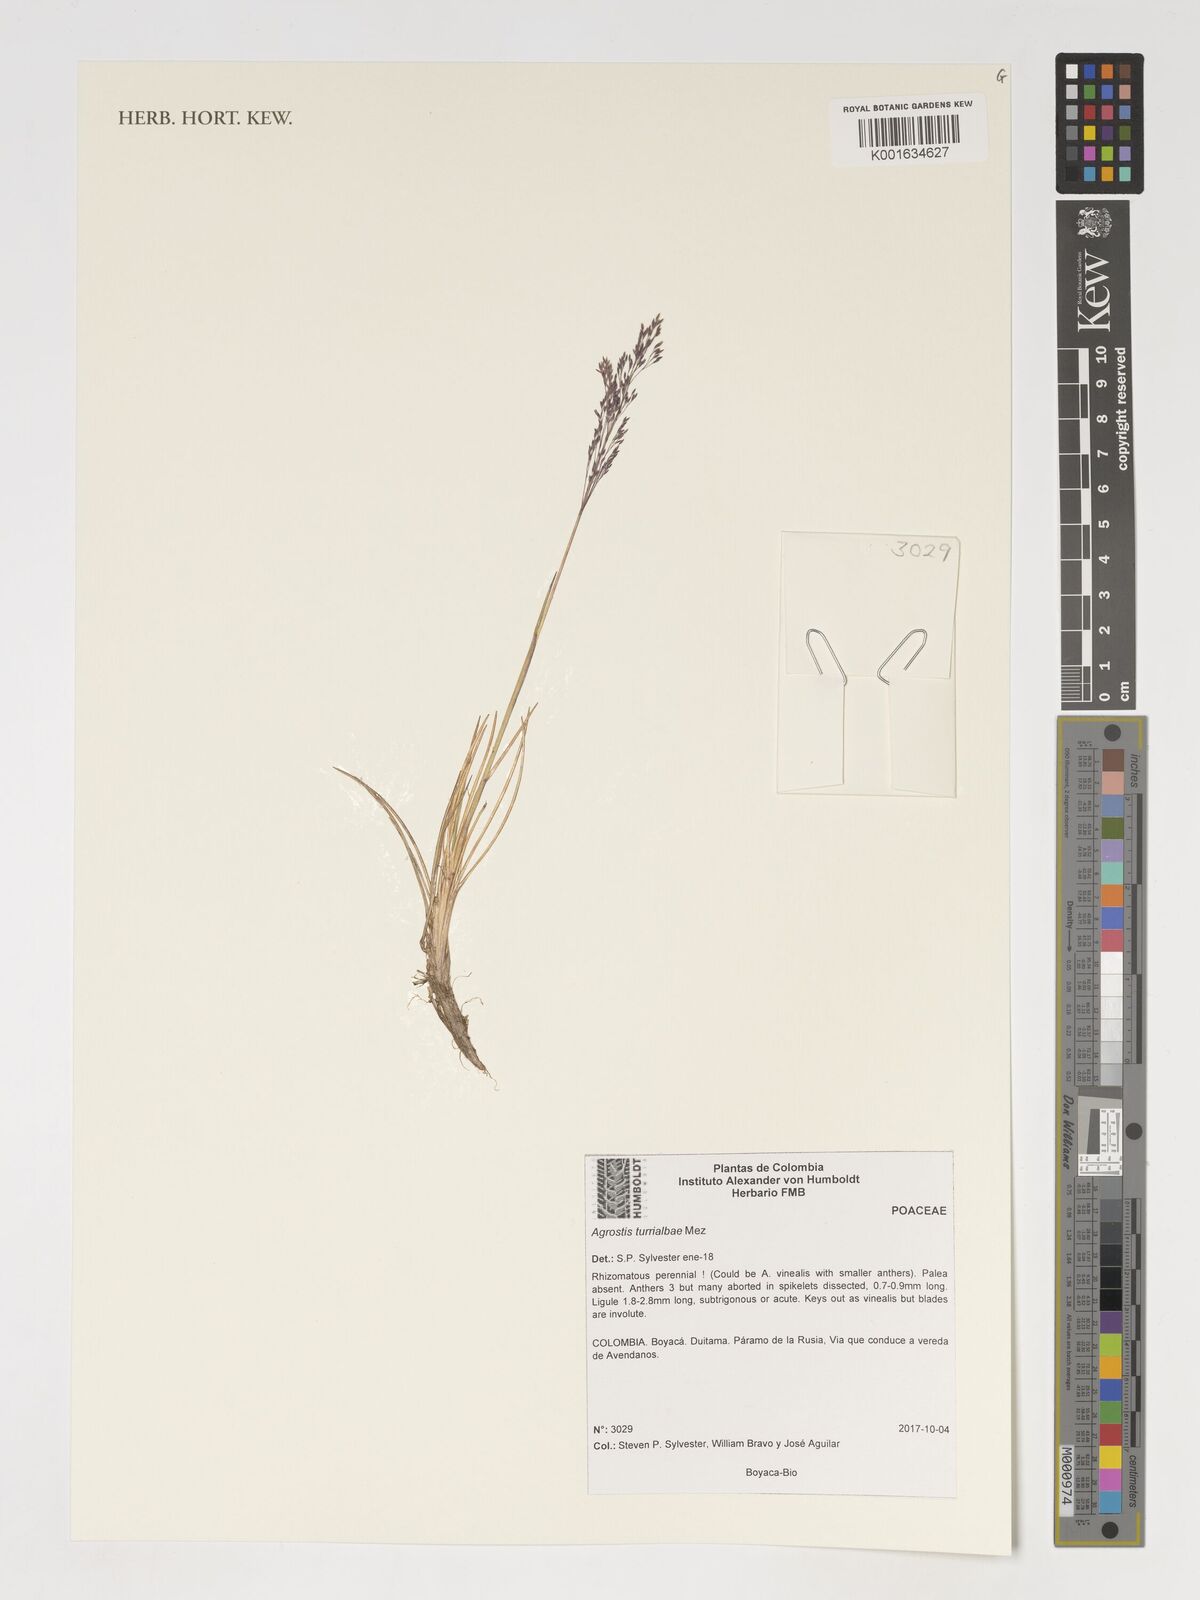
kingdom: Plantae
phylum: Tracheophyta
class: Liliopsida
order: Poales
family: Poaceae
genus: Agrostis
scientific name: Agrostis turrialbae
